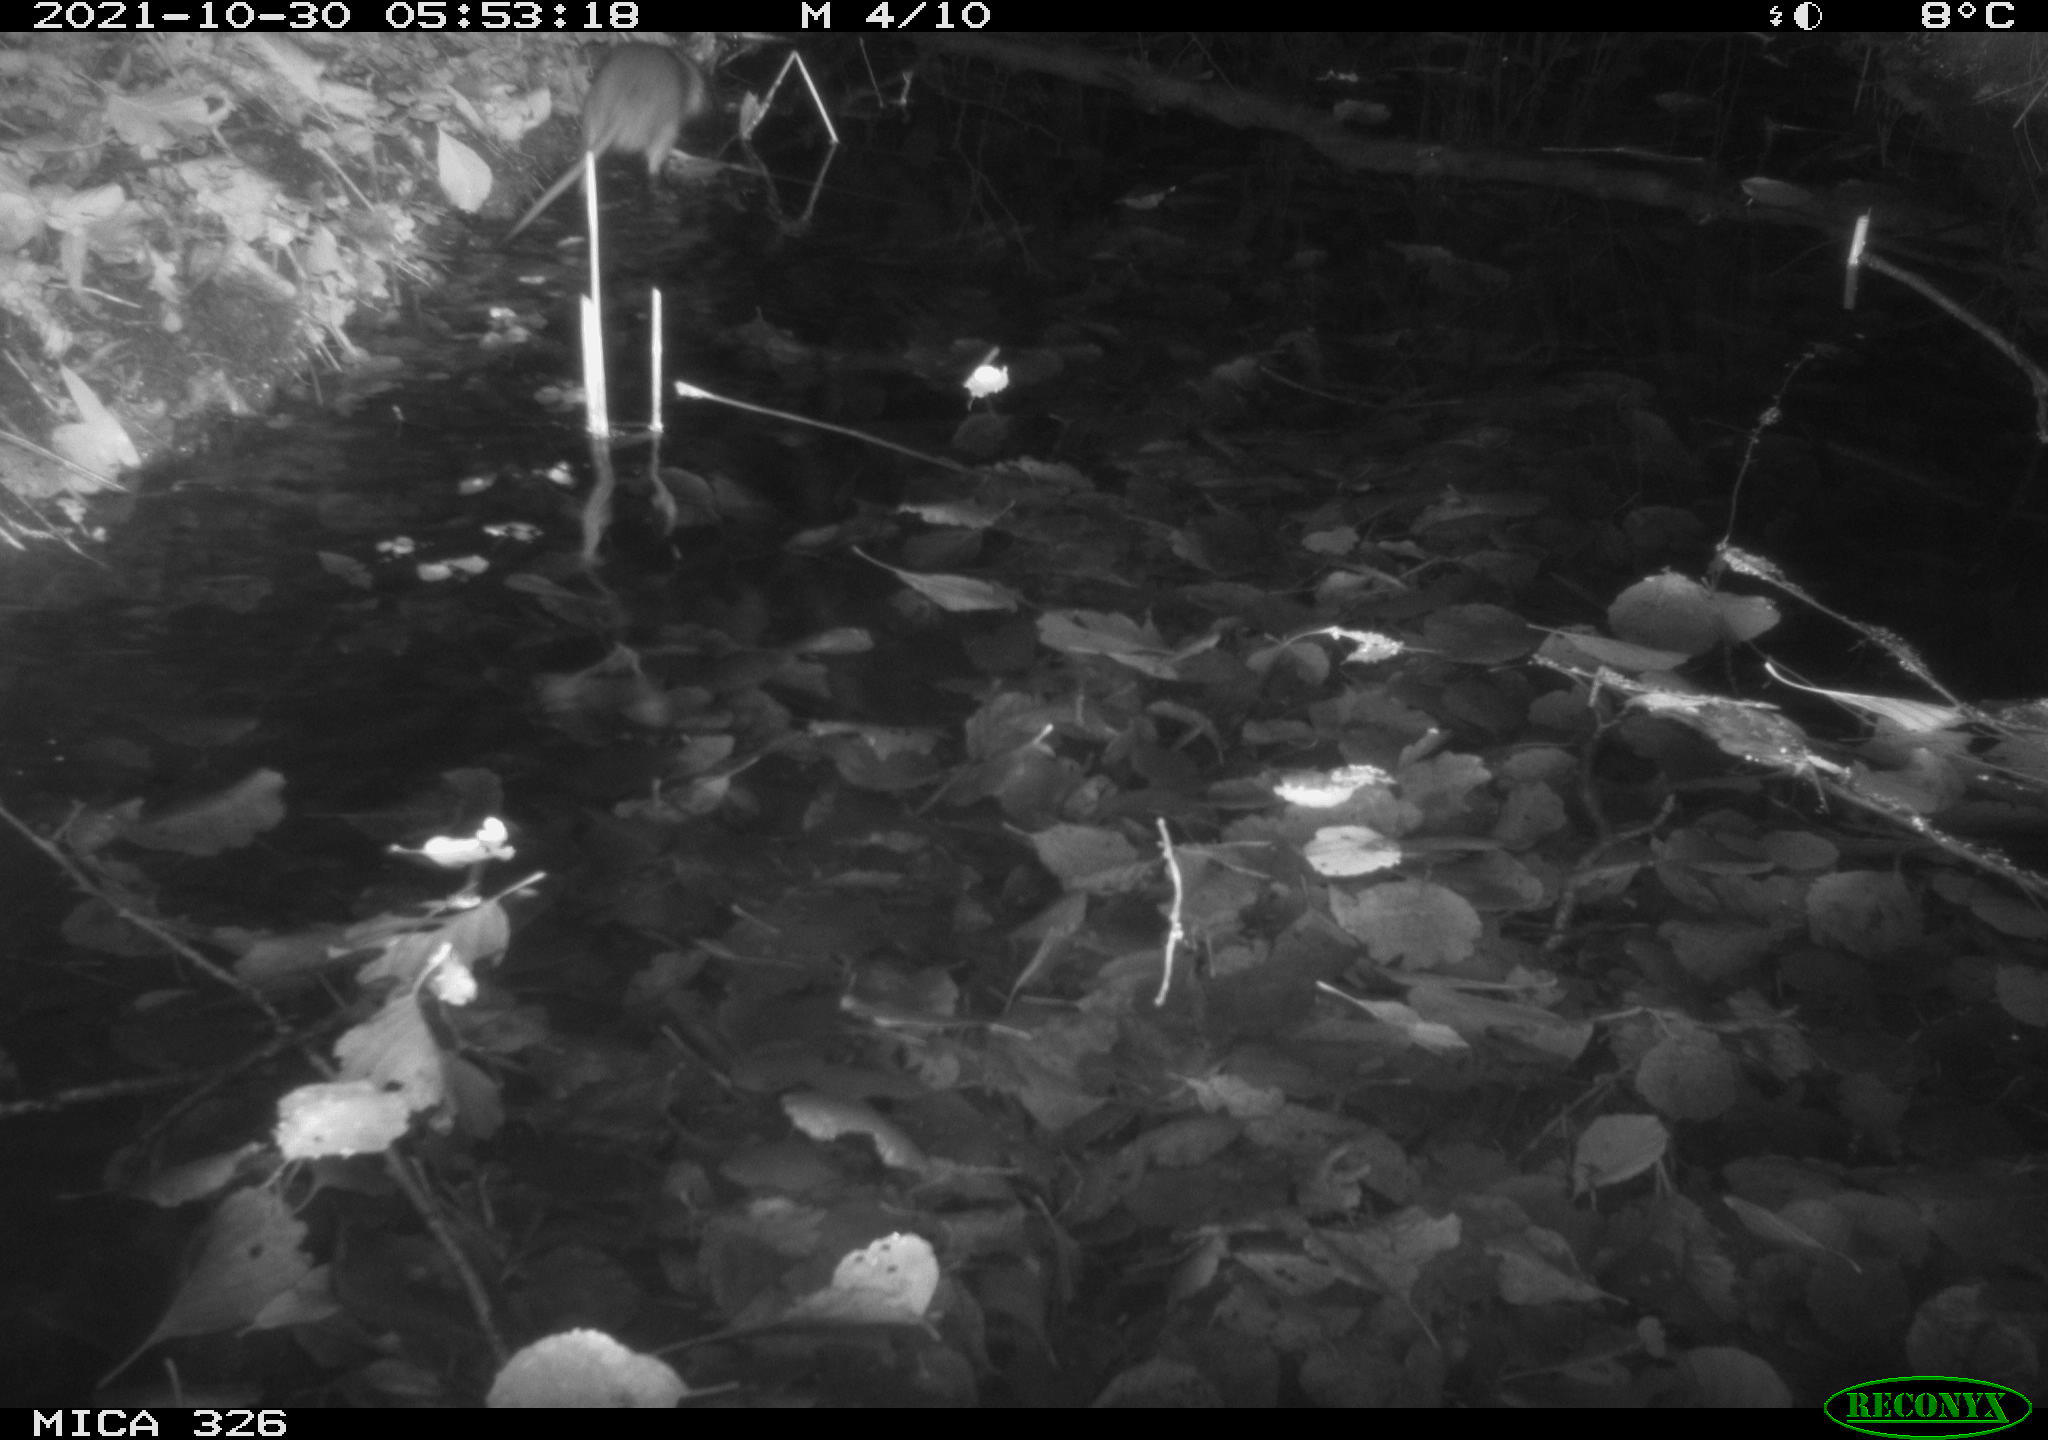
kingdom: Animalia
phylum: Chordata
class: Mammalia
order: Rodentia
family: Myocastoridae
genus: Myocastor
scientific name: Myocastor coypus
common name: Coypu
